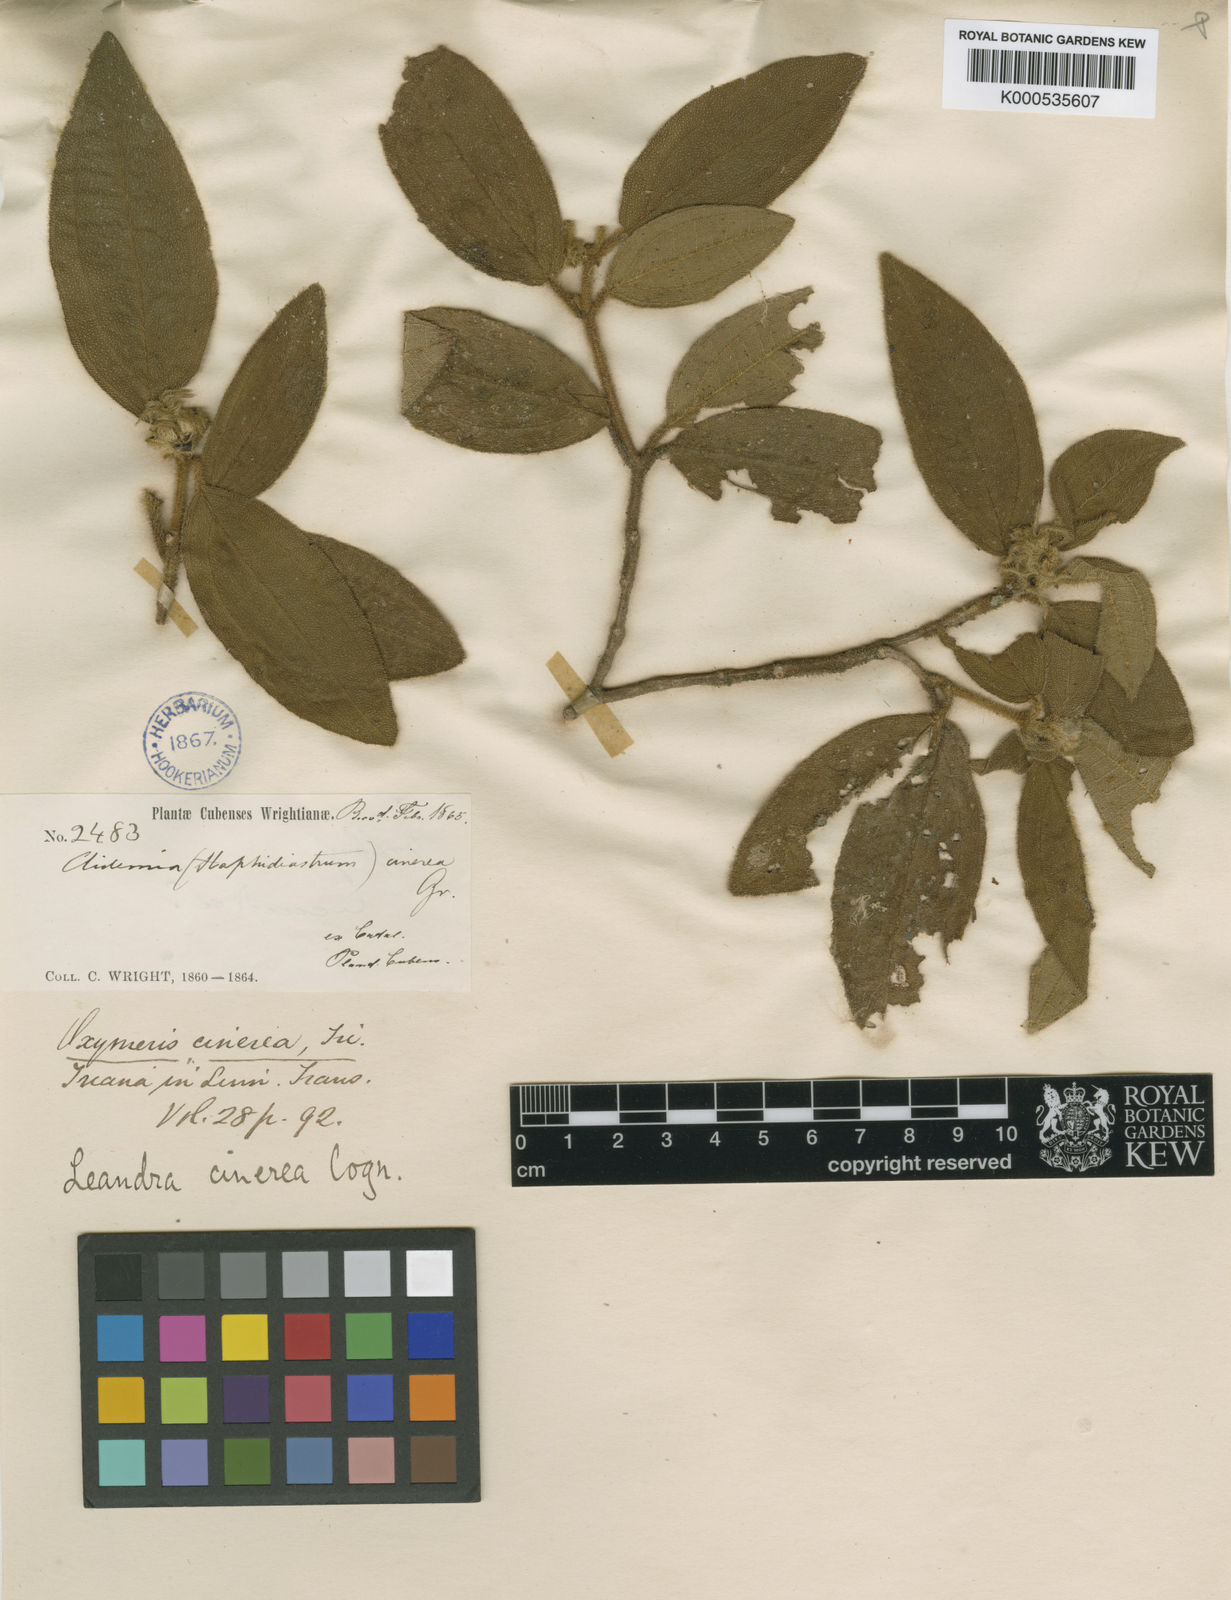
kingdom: Plantae
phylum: Tracheophyta
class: Magnoliopsida
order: Myrtales
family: Melastomataceae
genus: Miconia
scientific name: Miconia cubacinerea
